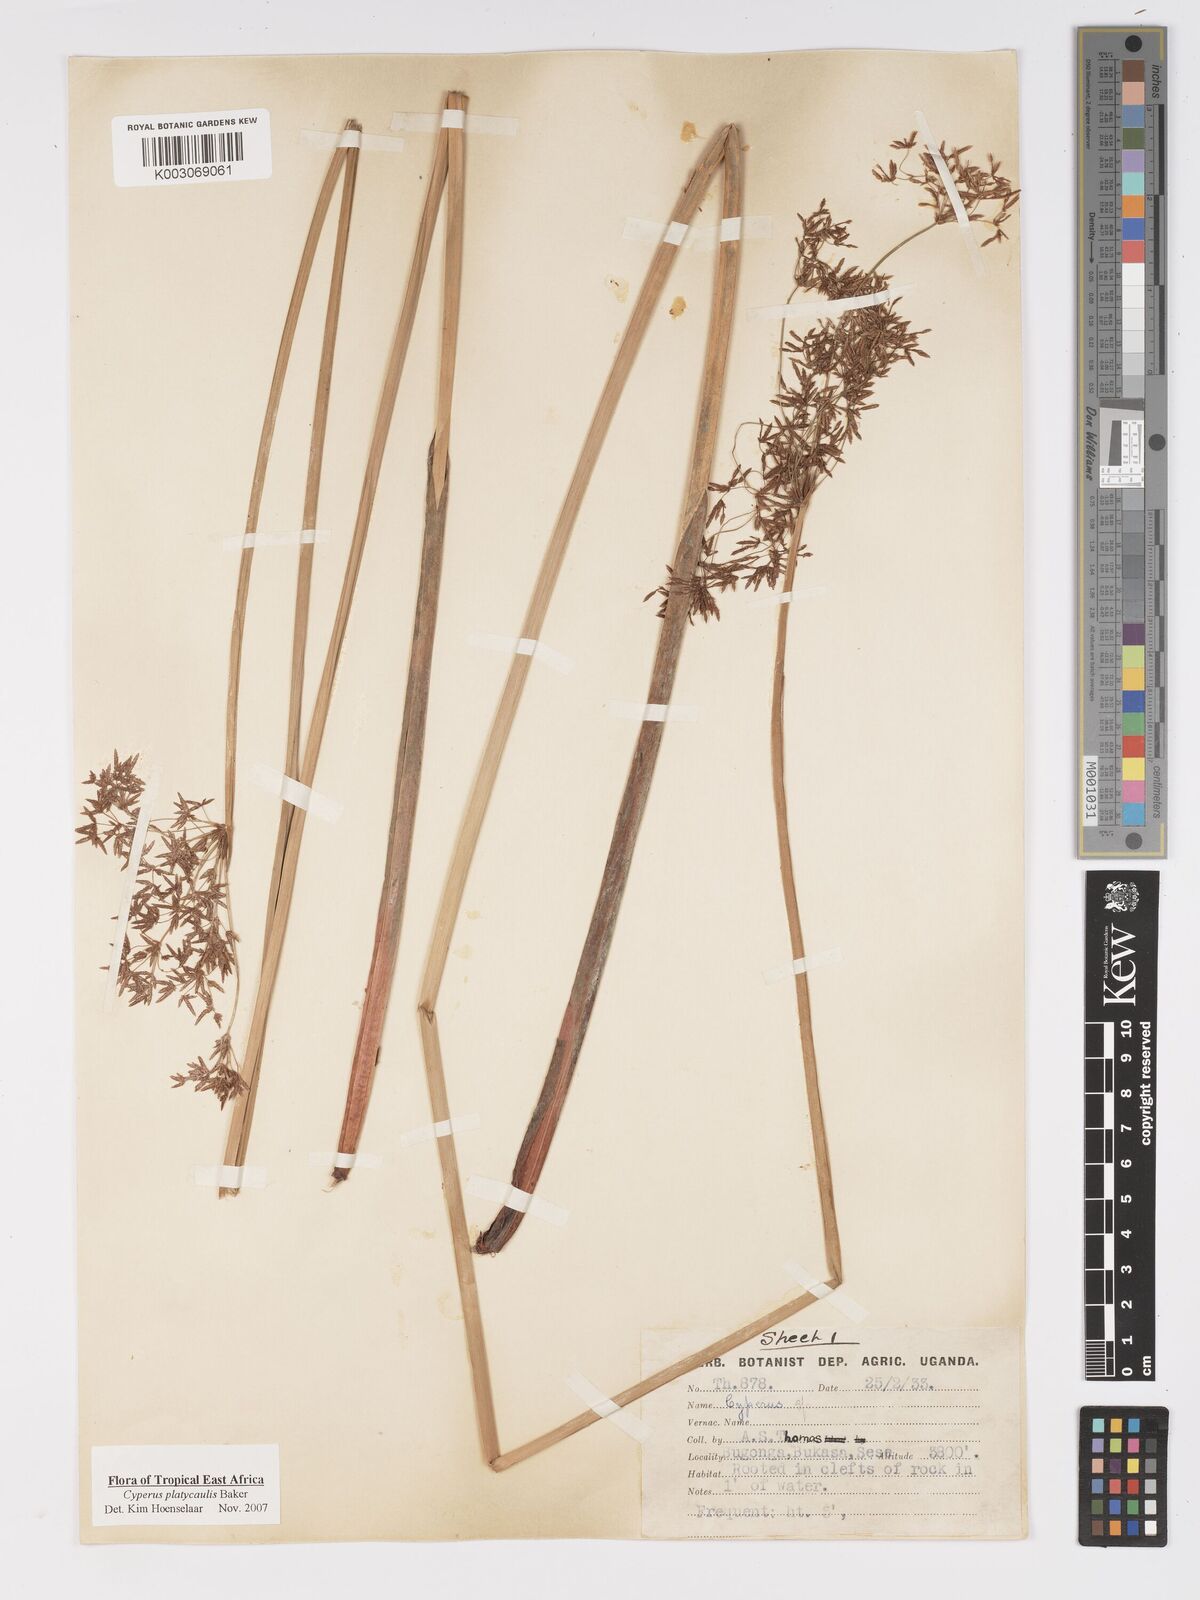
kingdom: Plantae
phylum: Tracheophyta
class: Liliopsida
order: Poales
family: Cyperaceae
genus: Cyperus
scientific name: Cyperus platycaulis
